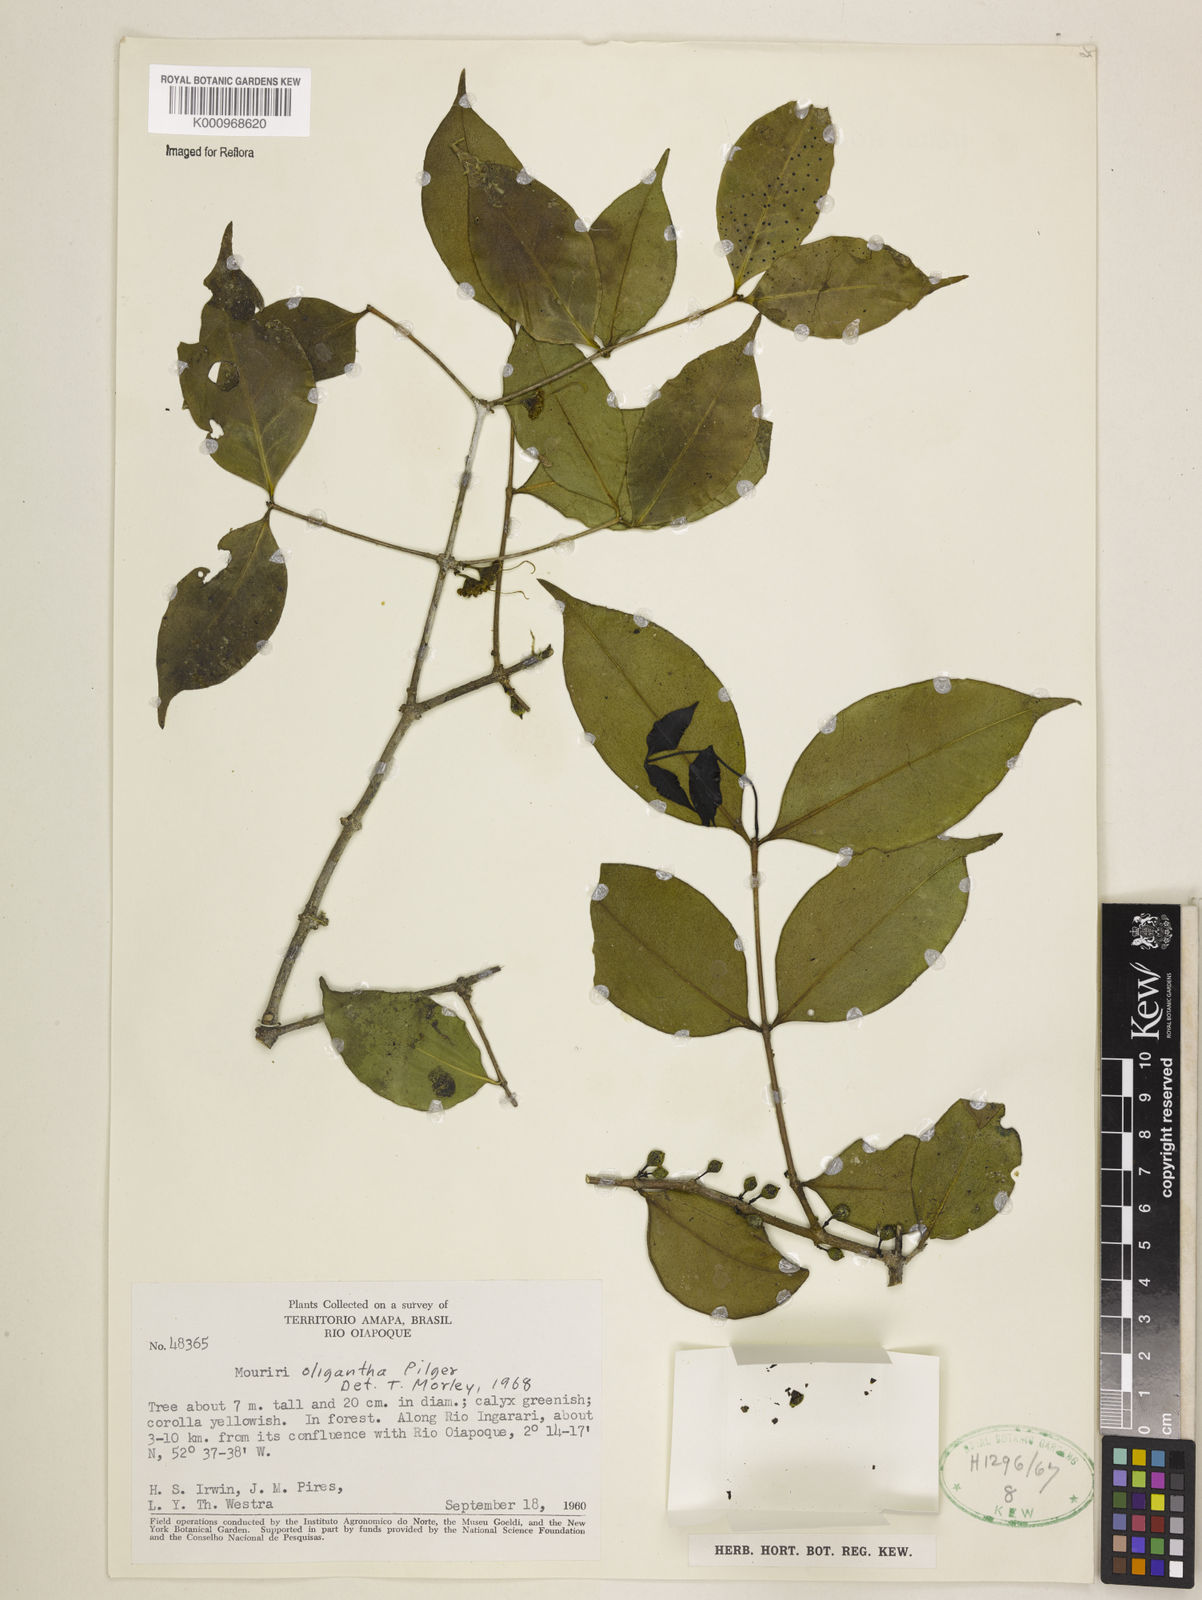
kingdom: Plantae
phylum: Tracheophyta
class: Magnoliopsida
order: Myrtales
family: Melastomataceae
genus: Mouriri
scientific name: Mouriri oligantha
